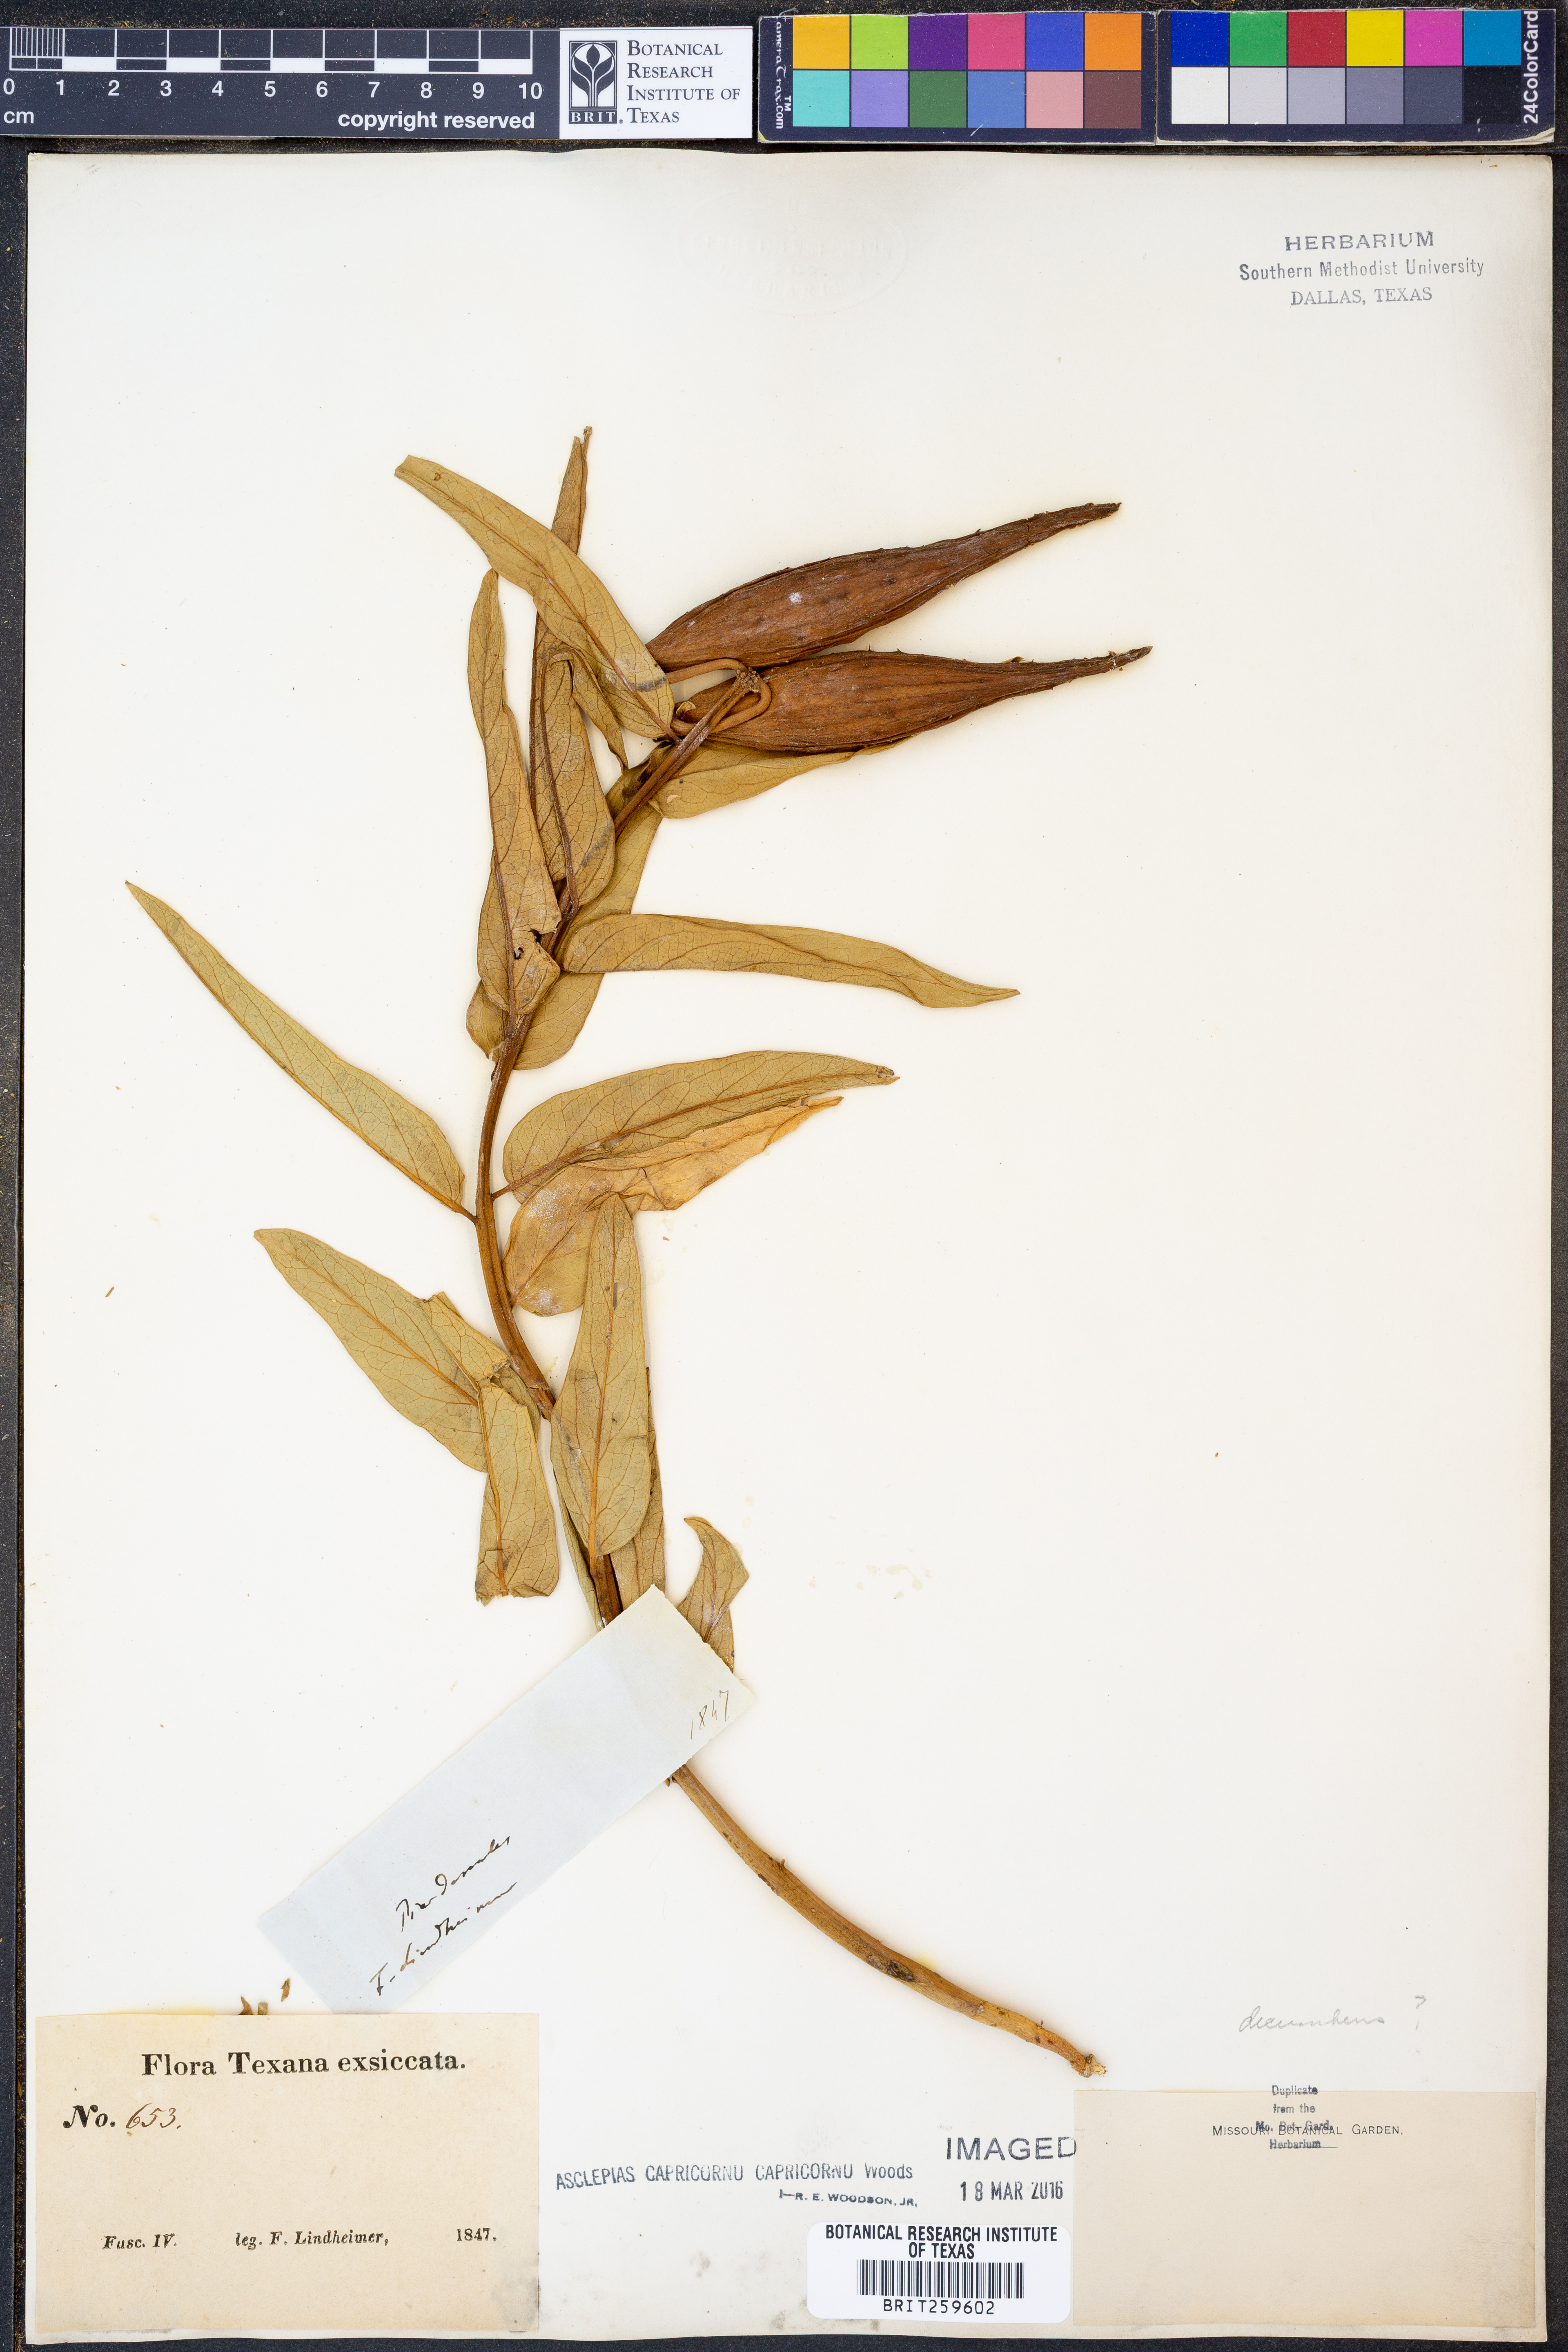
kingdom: Plantae
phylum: Tracheophyta
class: Magnoliopsida
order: Gentianales
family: Apocynaceae
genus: Asclepias
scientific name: Asclepias asperula
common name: Antelope horns
